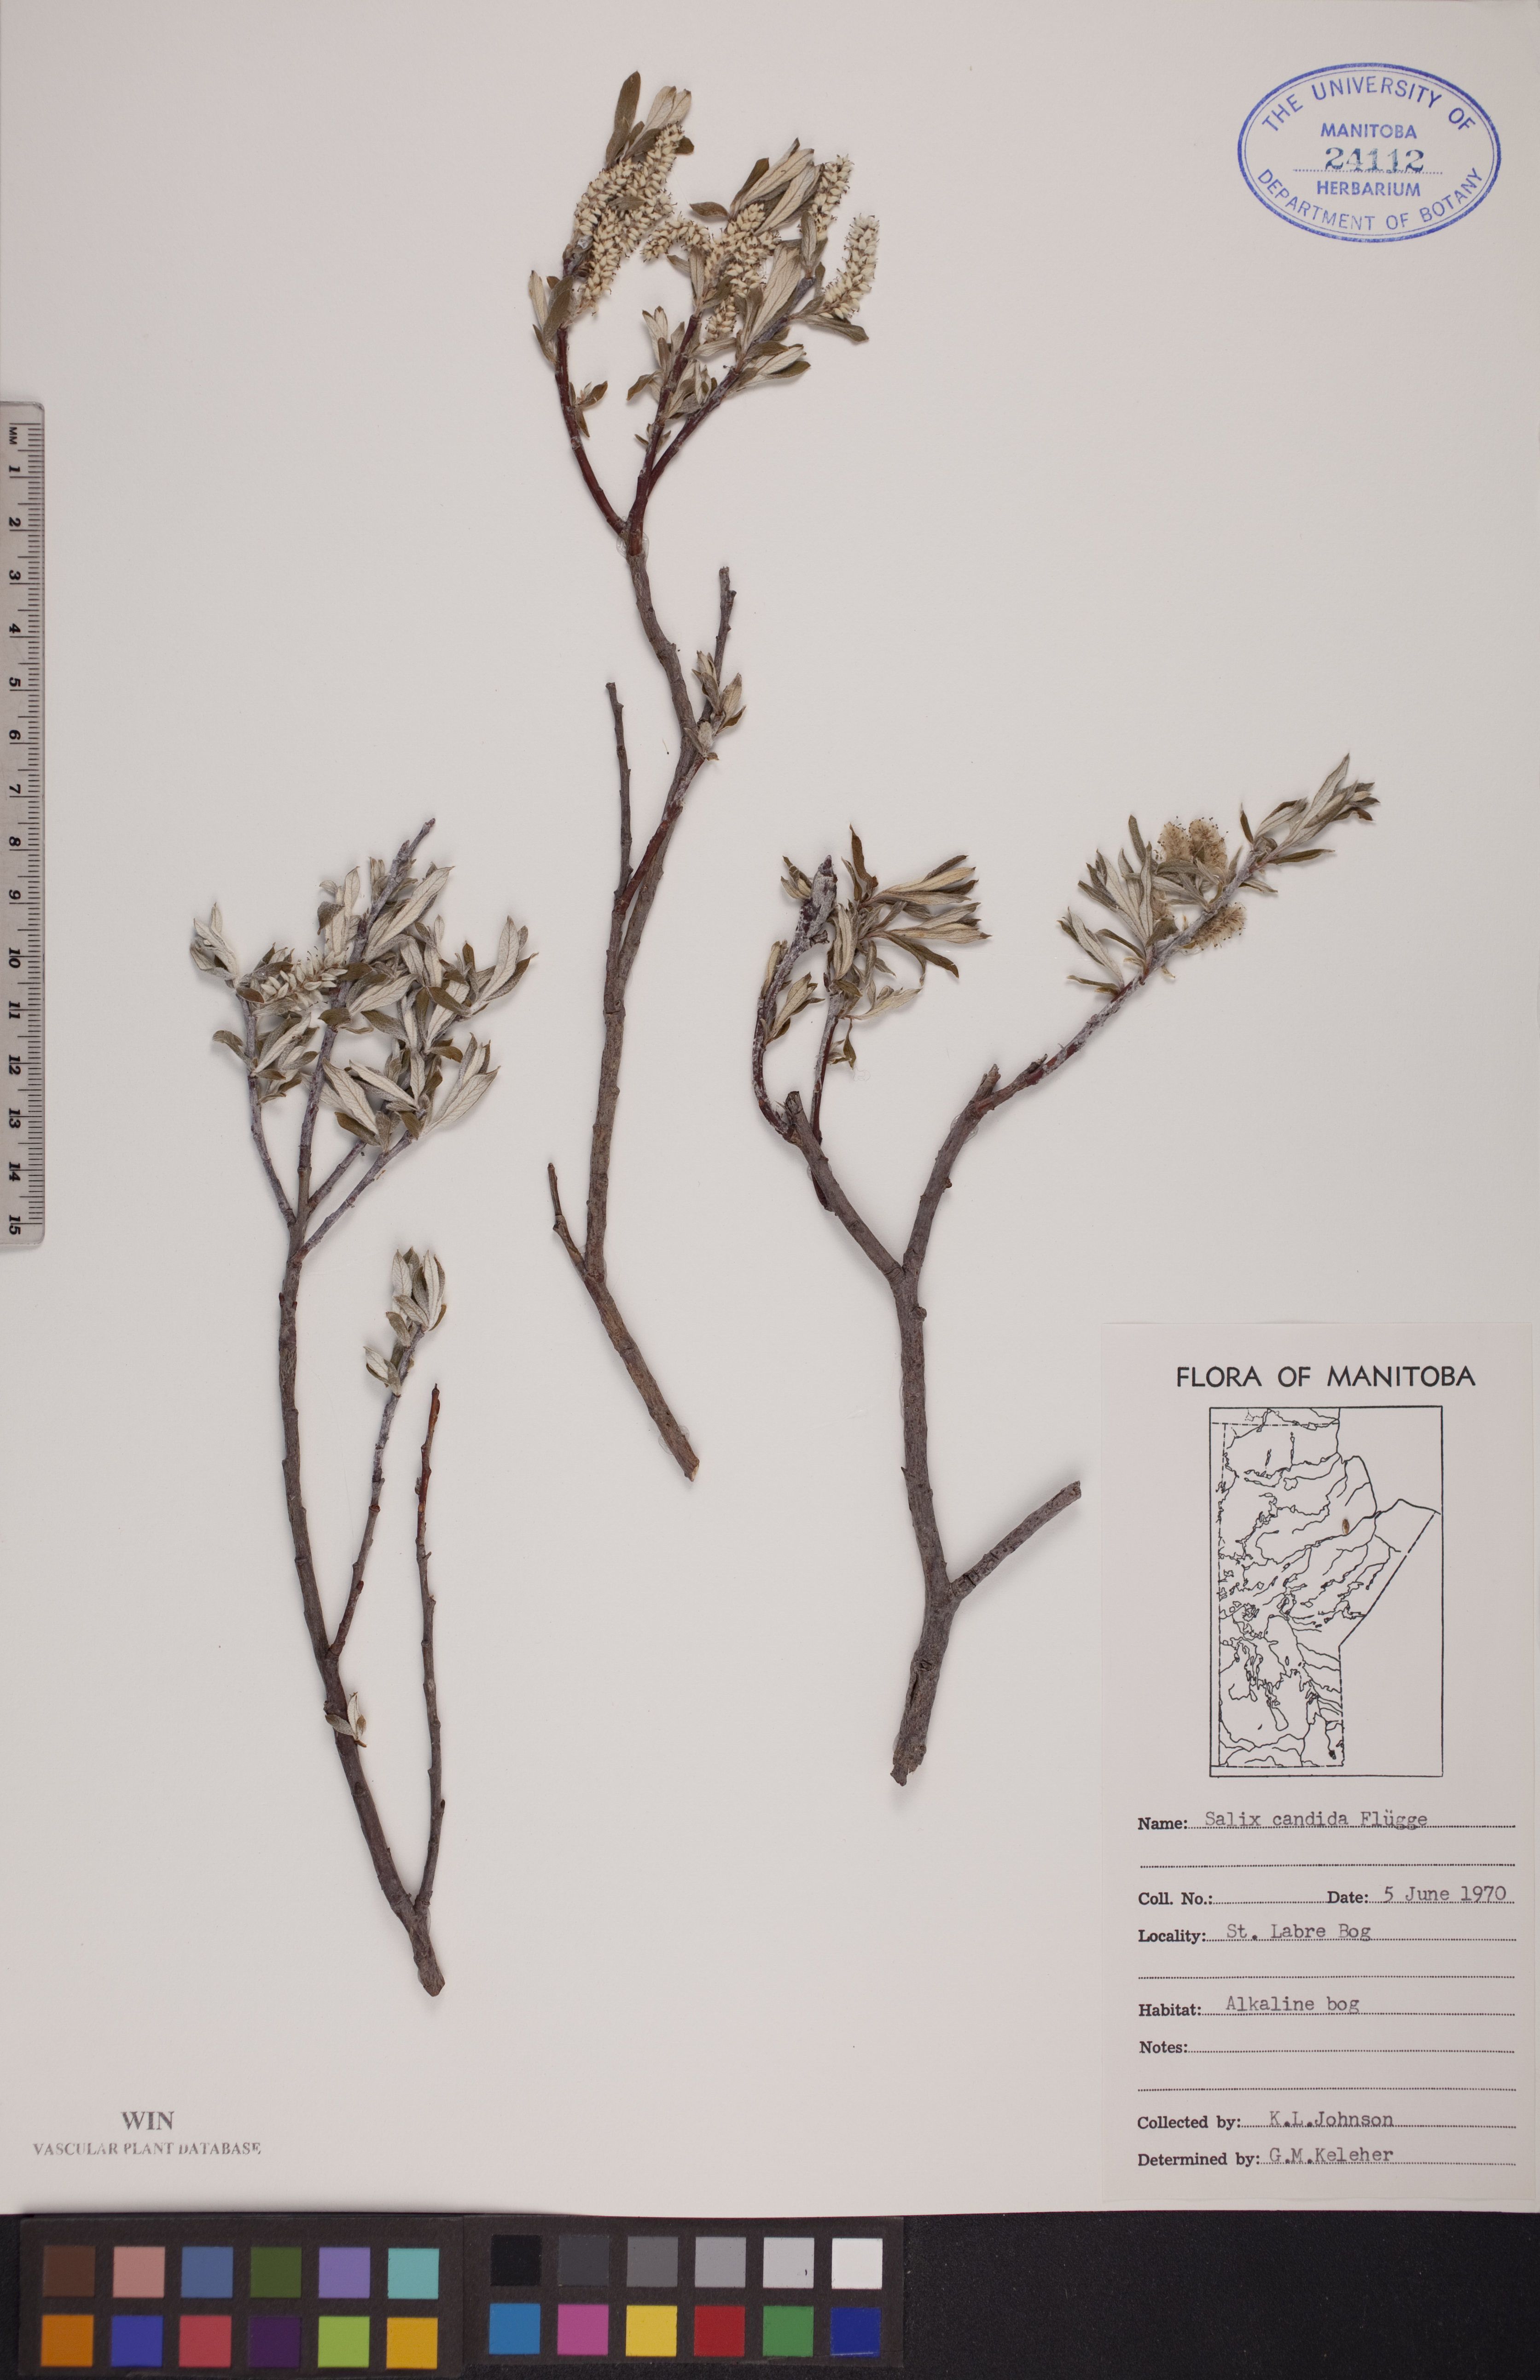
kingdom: Plantae
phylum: Tracheophyta
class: Magnoliopsida
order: Malpighiales
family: Salicaceae
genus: Salix
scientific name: Salix candida
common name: Hoary willow
